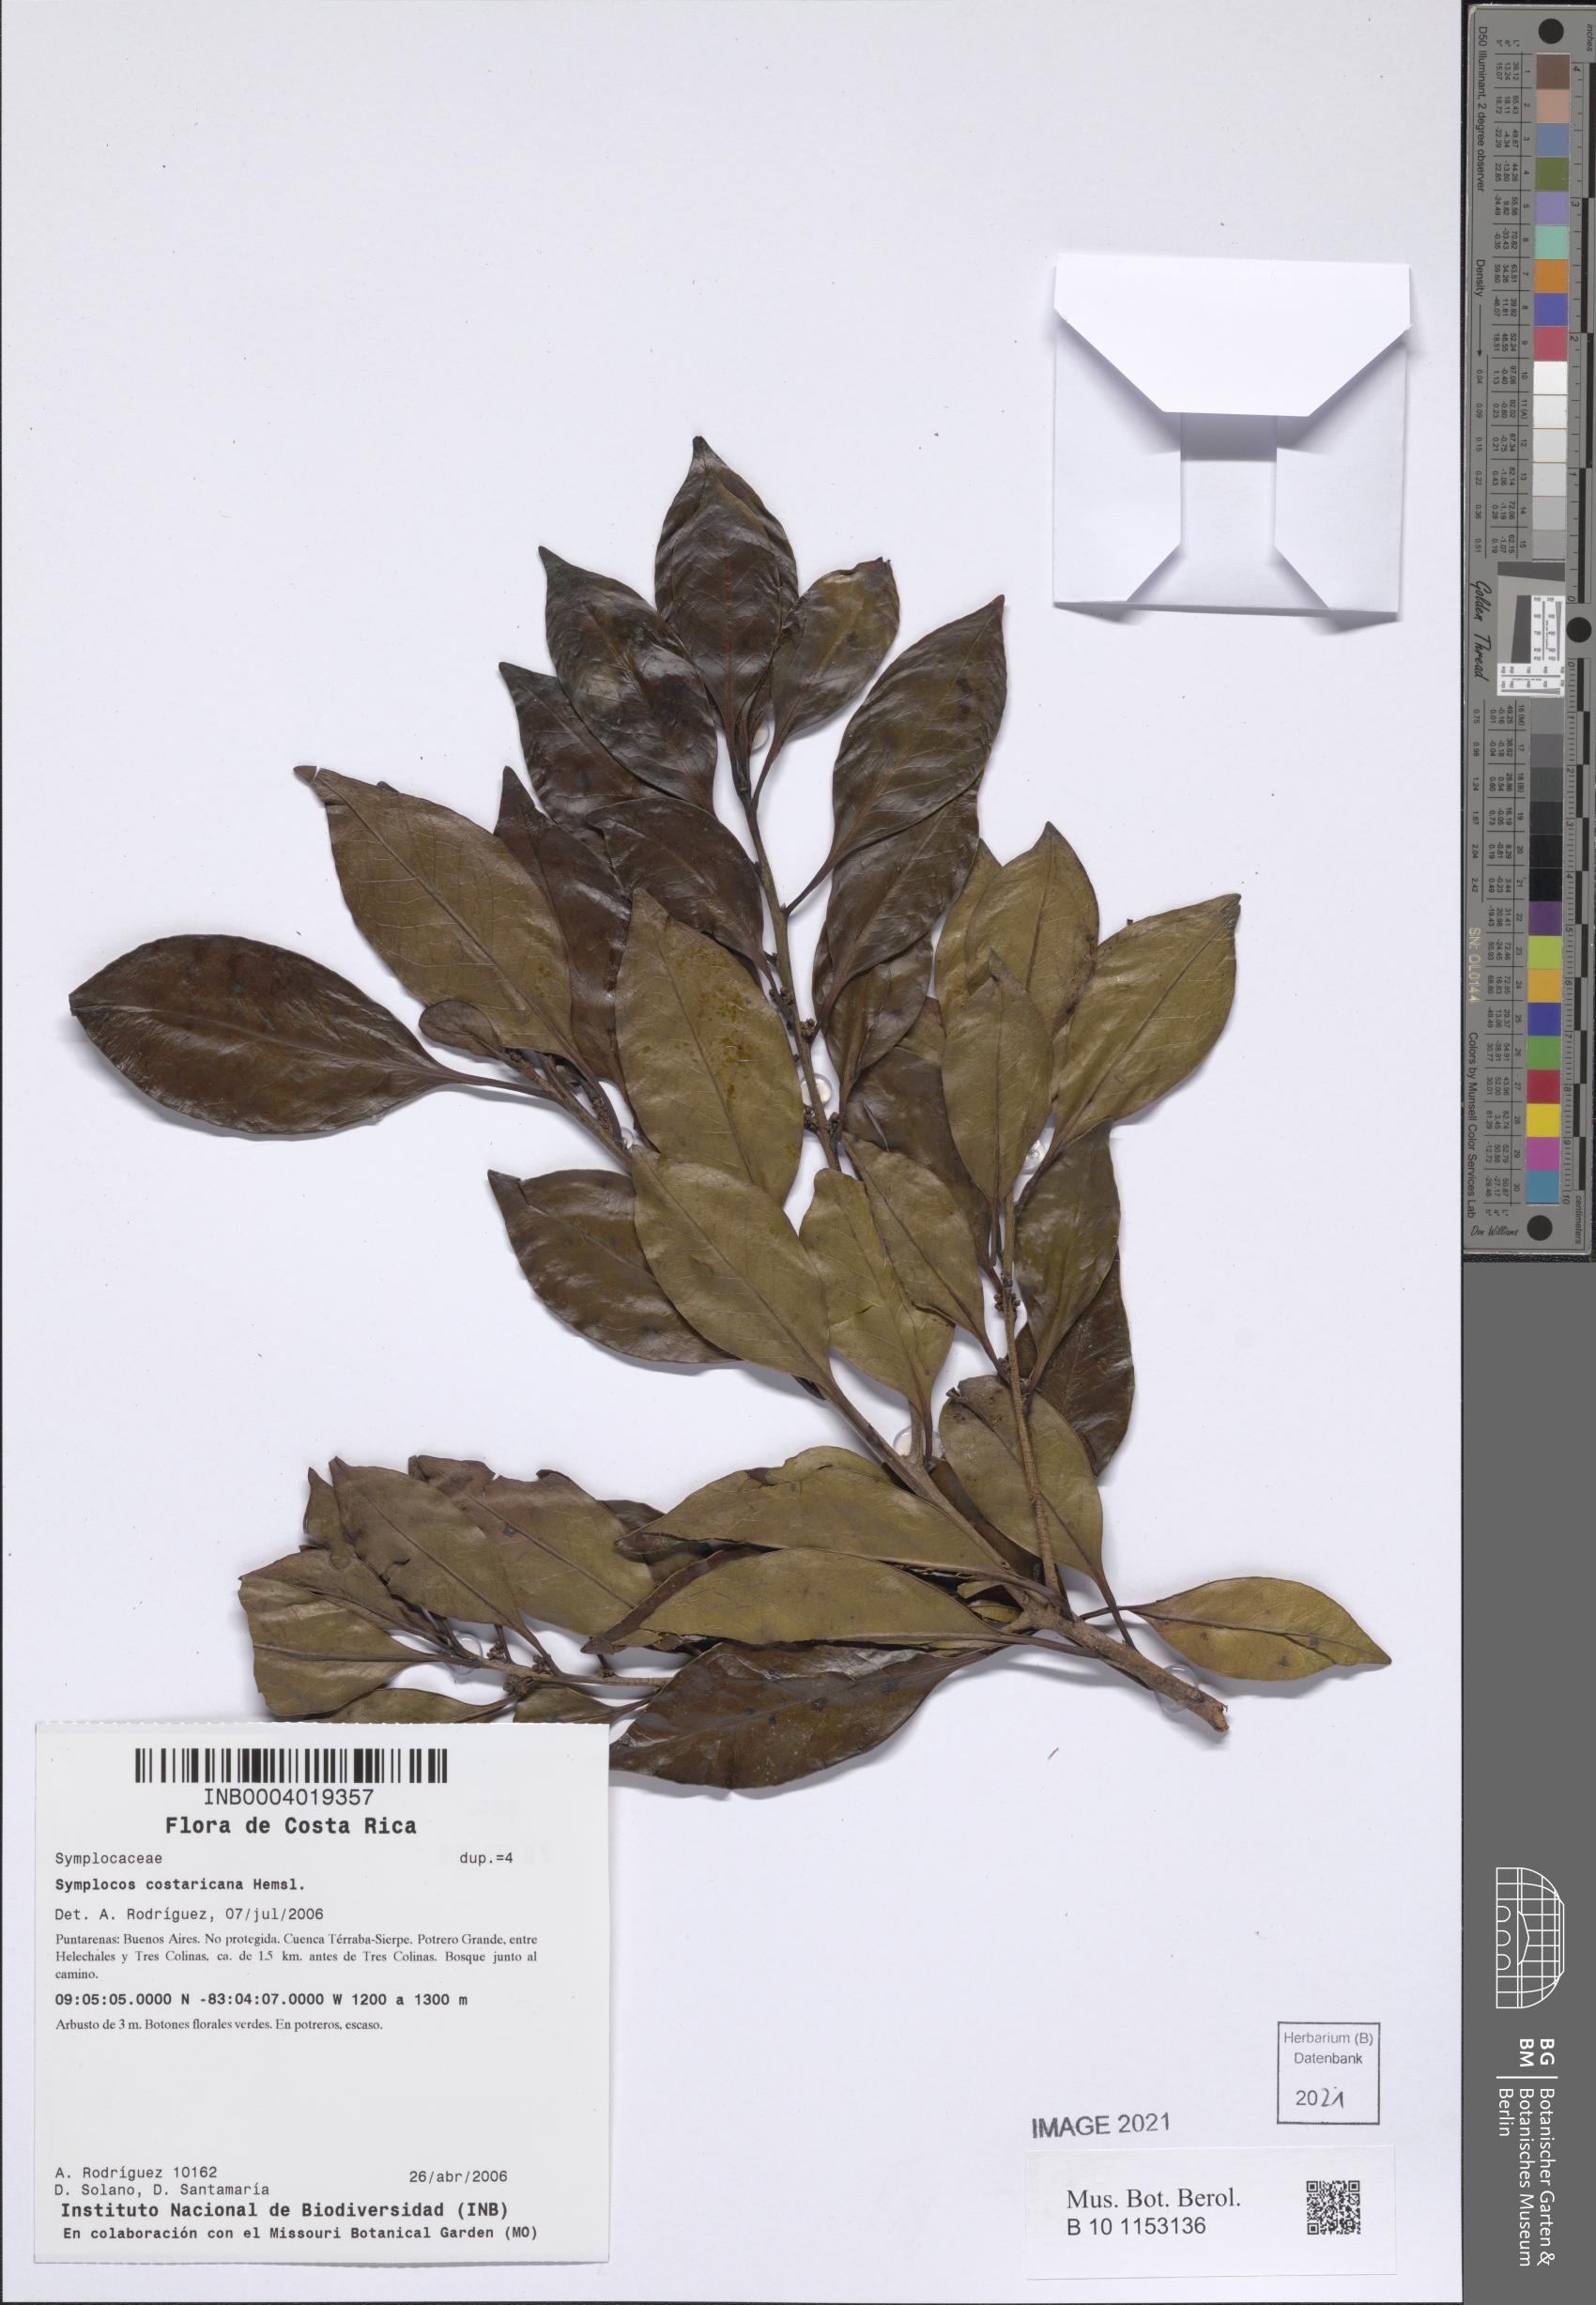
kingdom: Plantae
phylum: Tracheophyta
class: Magnoliopsida
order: Ericales
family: Symplocaceae
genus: Symplocos
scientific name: Symplocos costaricana
